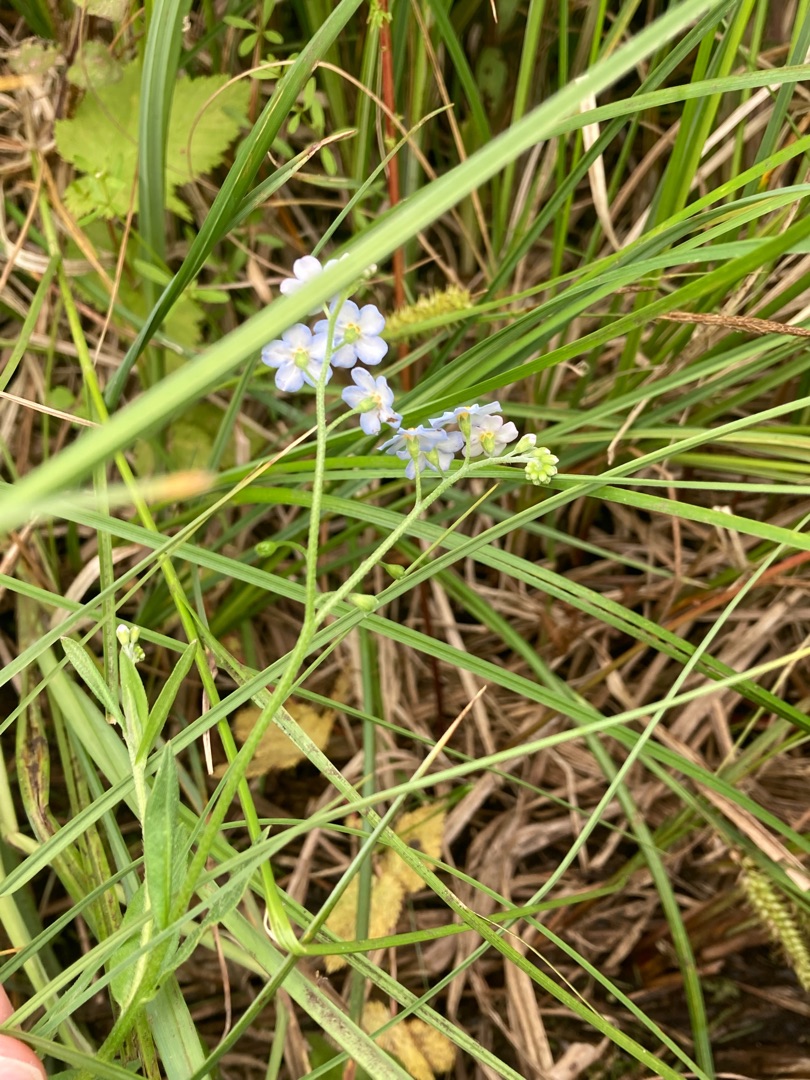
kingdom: Plantae
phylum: Tracheophyta
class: Magnoliopsida
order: Boraginales
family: Boraginaceae
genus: Myosotis
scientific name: Myosotis scorpioides
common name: Eng-forglemmigej
